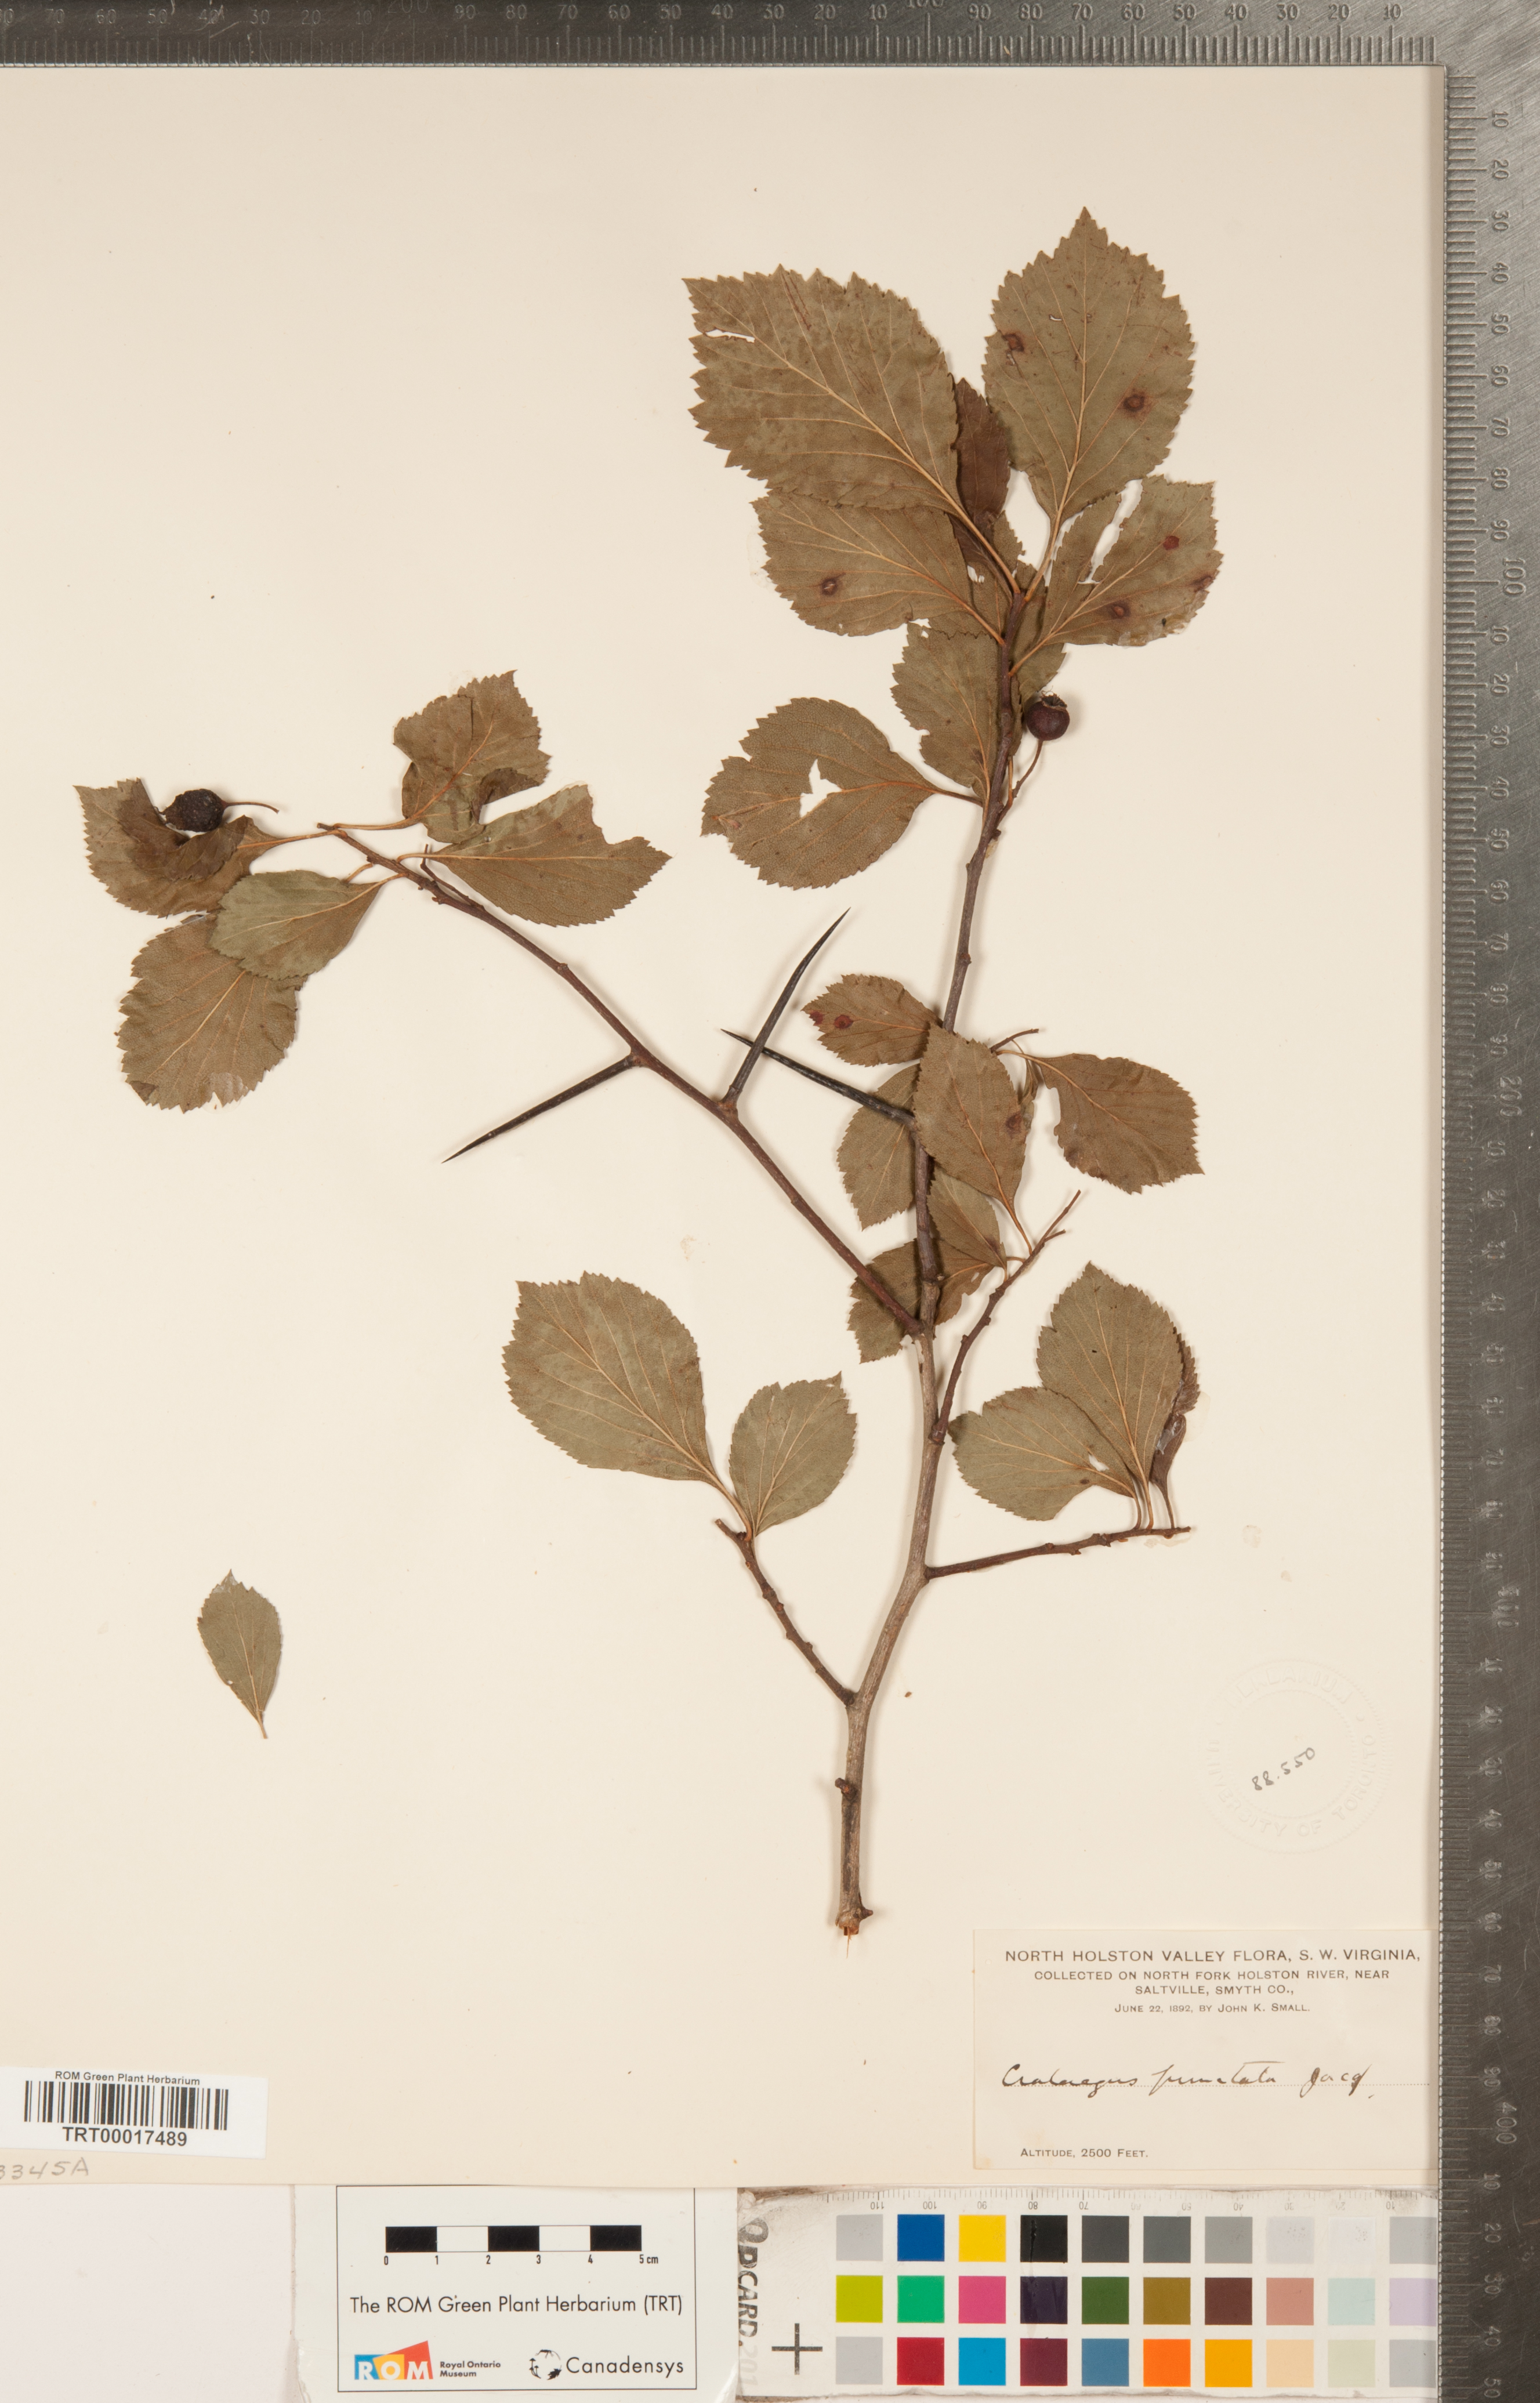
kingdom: Plantae
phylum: Tracheophyta
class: Magnoliopsida
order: Rosales
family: Rosaceae
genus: Crataegus
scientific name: Crataegus punctata
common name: Dotted hawthorn
